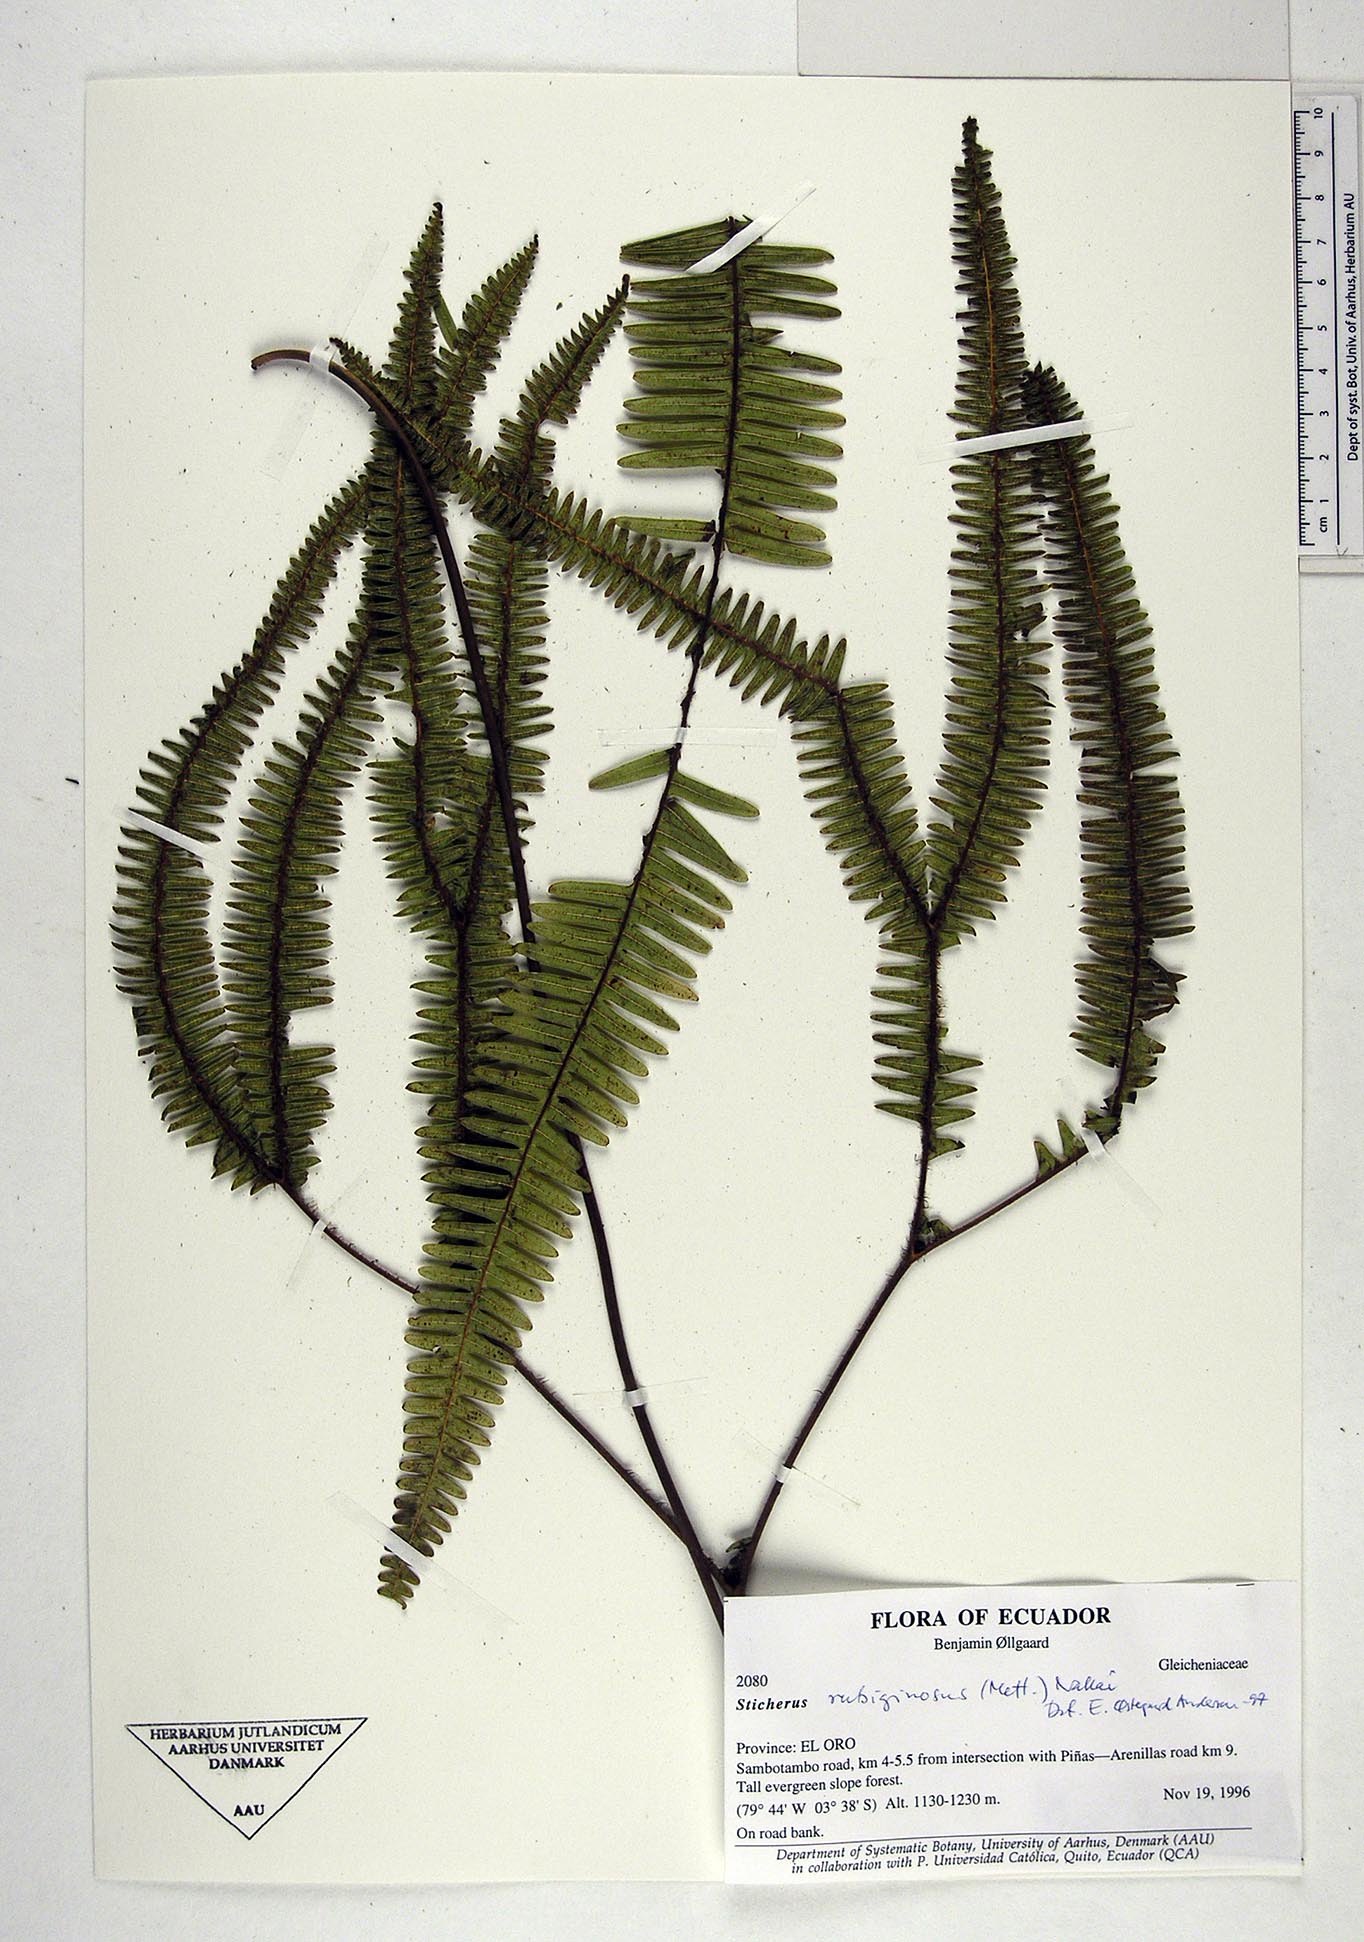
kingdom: Plantae
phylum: Tracheophyta
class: Polypodiopsida
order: Gleicheniales
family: Gleicheniaceae
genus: Sticherus
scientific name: Sticherus rubiginosus
